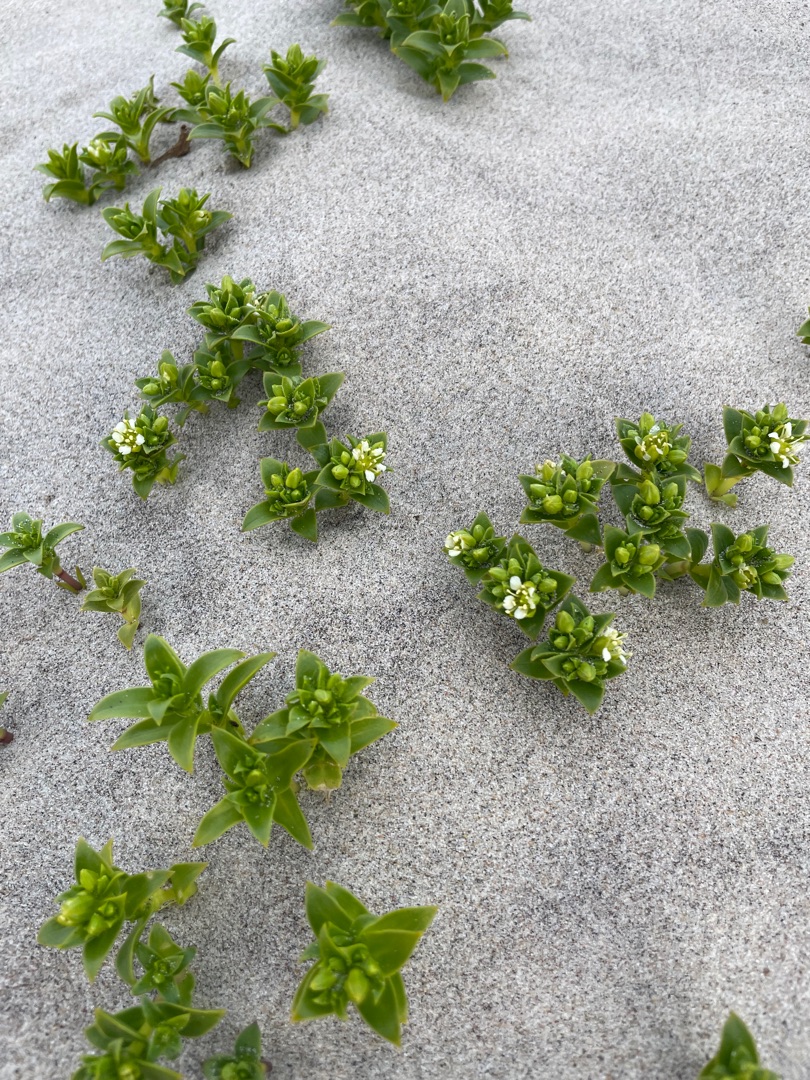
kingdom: Plantae
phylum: Tracheophyta
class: Magnoliopsida
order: Caryophyllales
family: Caryophyllaceae
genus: Honckenya
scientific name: Honckenya peploides
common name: Strandarve
